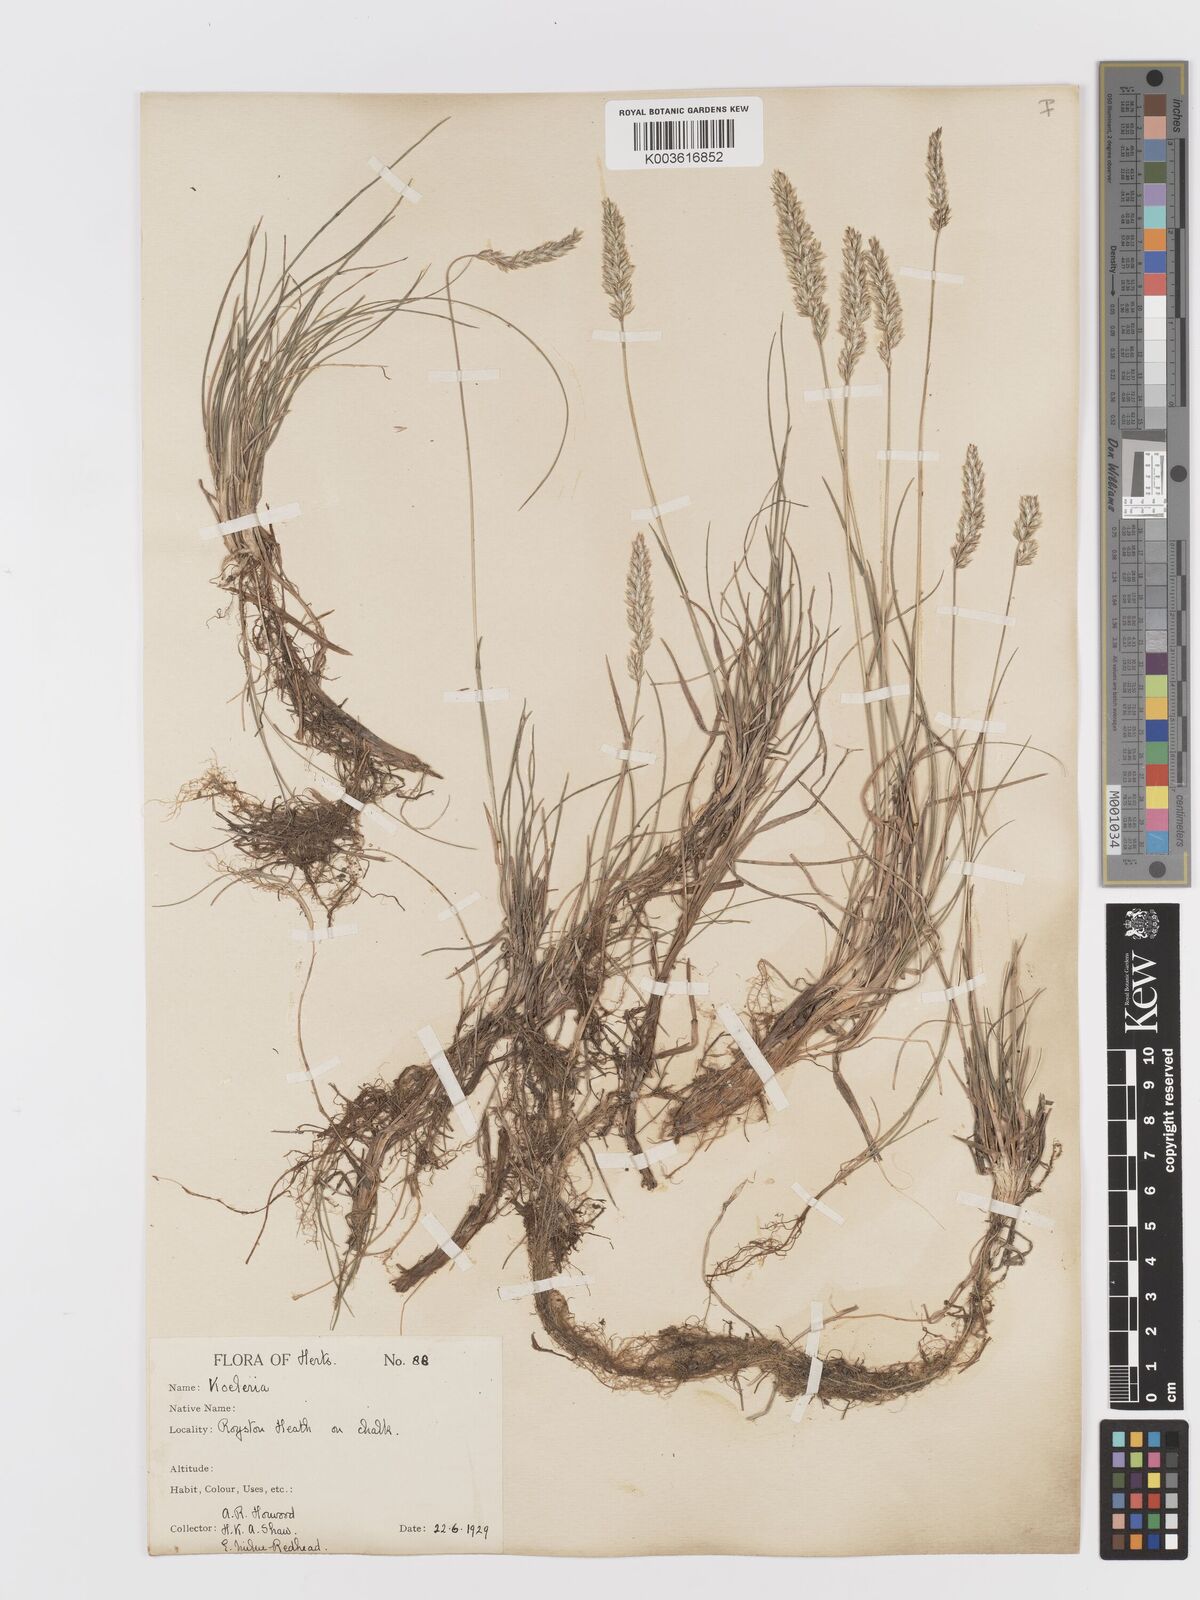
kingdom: Plantae
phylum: Tracheophyta
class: Liliopsida
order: Poales
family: Poaceae
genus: Koeleria
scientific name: Koeleria macrantha
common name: Crested hair-grass
